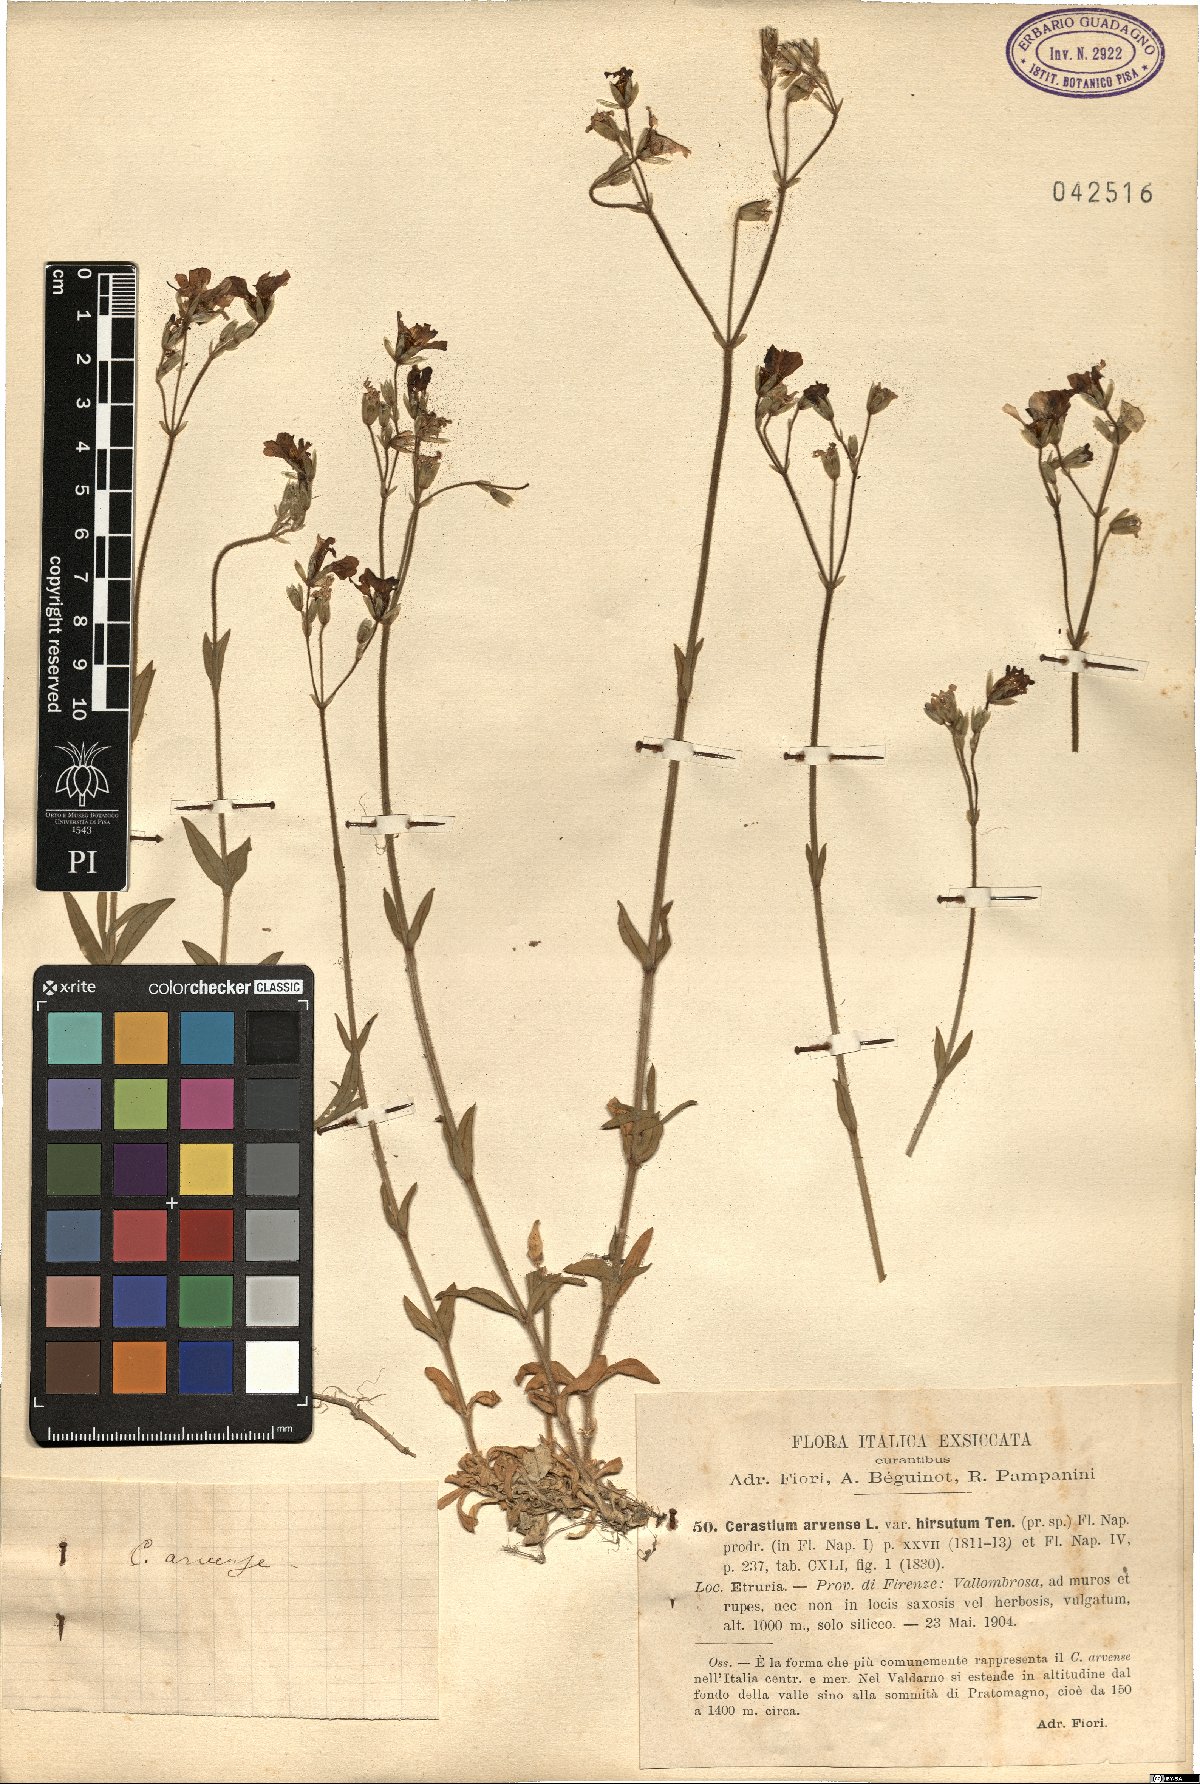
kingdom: Plantae
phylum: Tracheophyta
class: Magnoliopsida
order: Caryophyllales
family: Caryophyllaceae
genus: Cerastium
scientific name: Cerastium scaranii
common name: Italian mouse-ear
